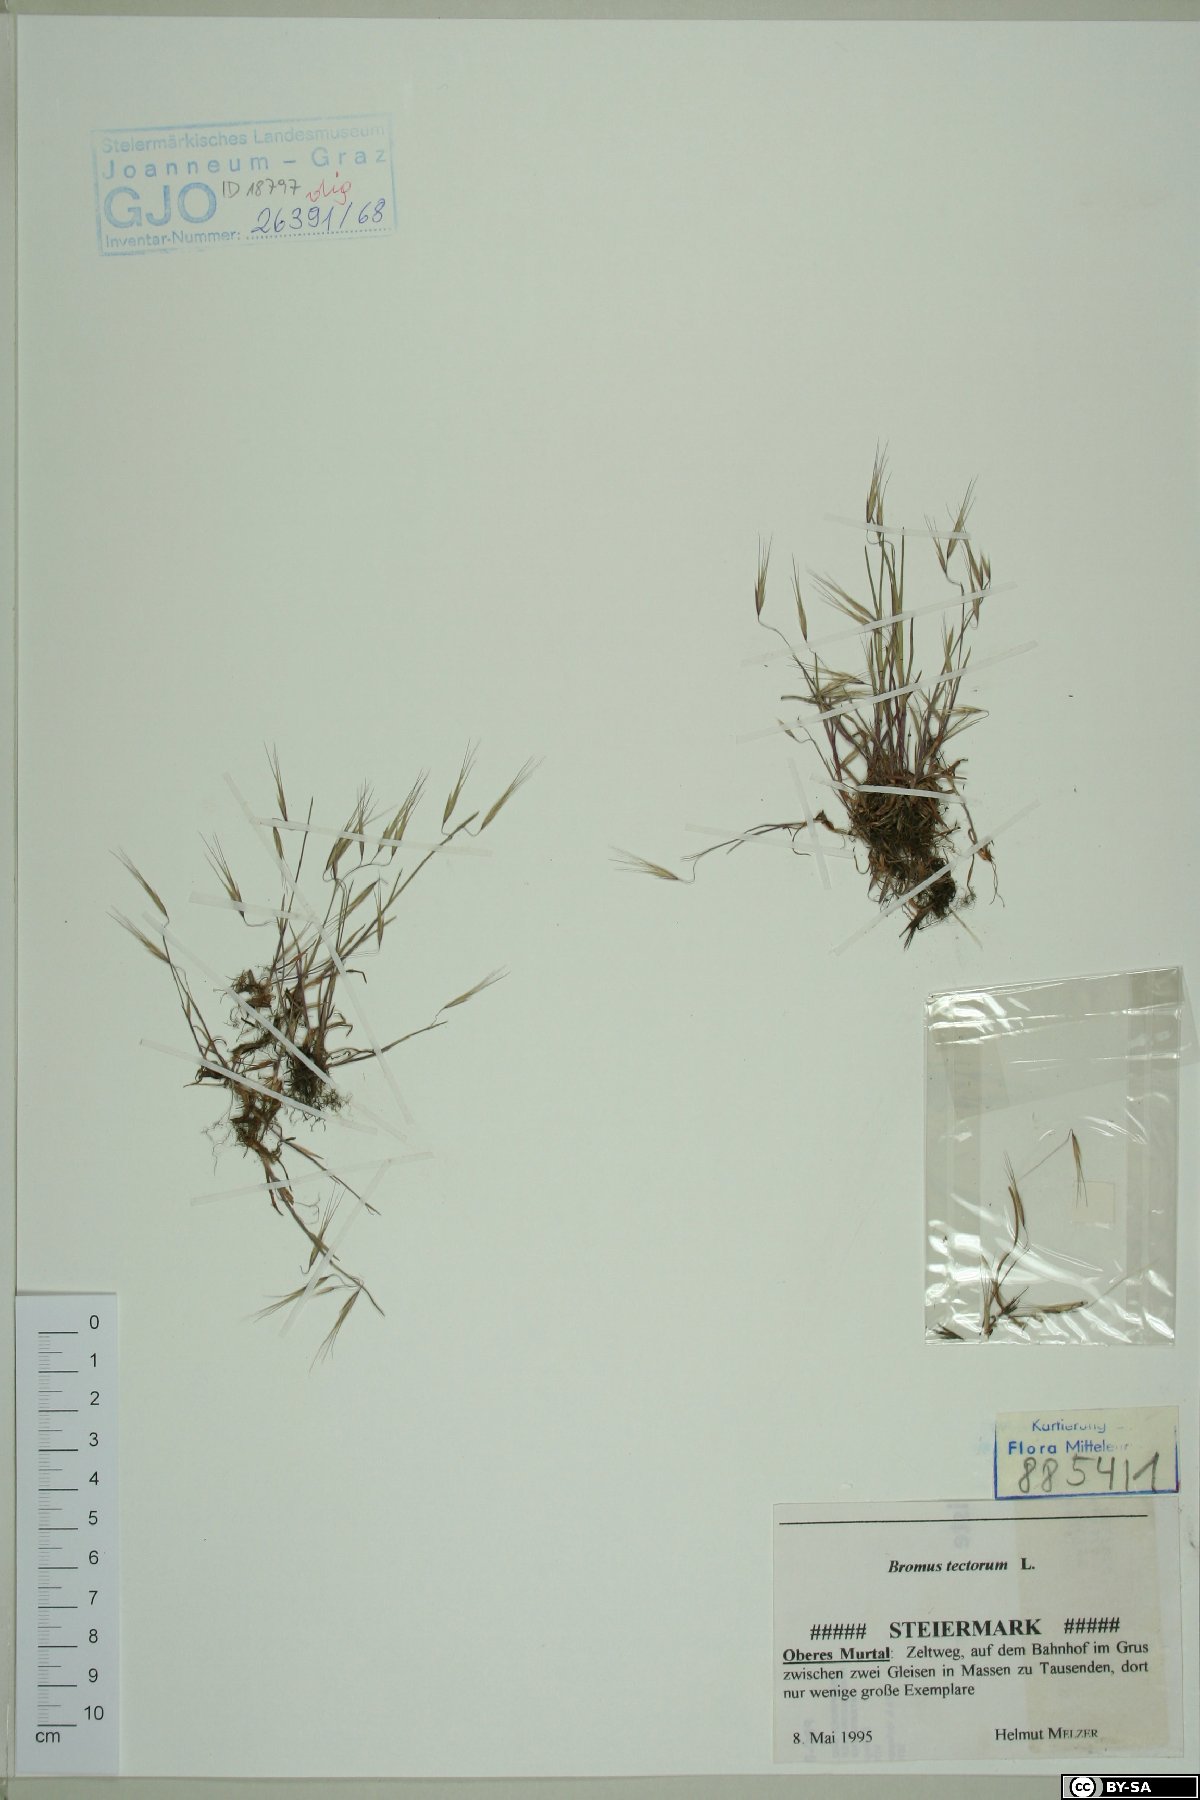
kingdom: Plantae
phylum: Tracheophyta
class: Liliopsida
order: Poales
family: Poaceae
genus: Bromus
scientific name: Bromus tectorum
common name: Cheatgrass
